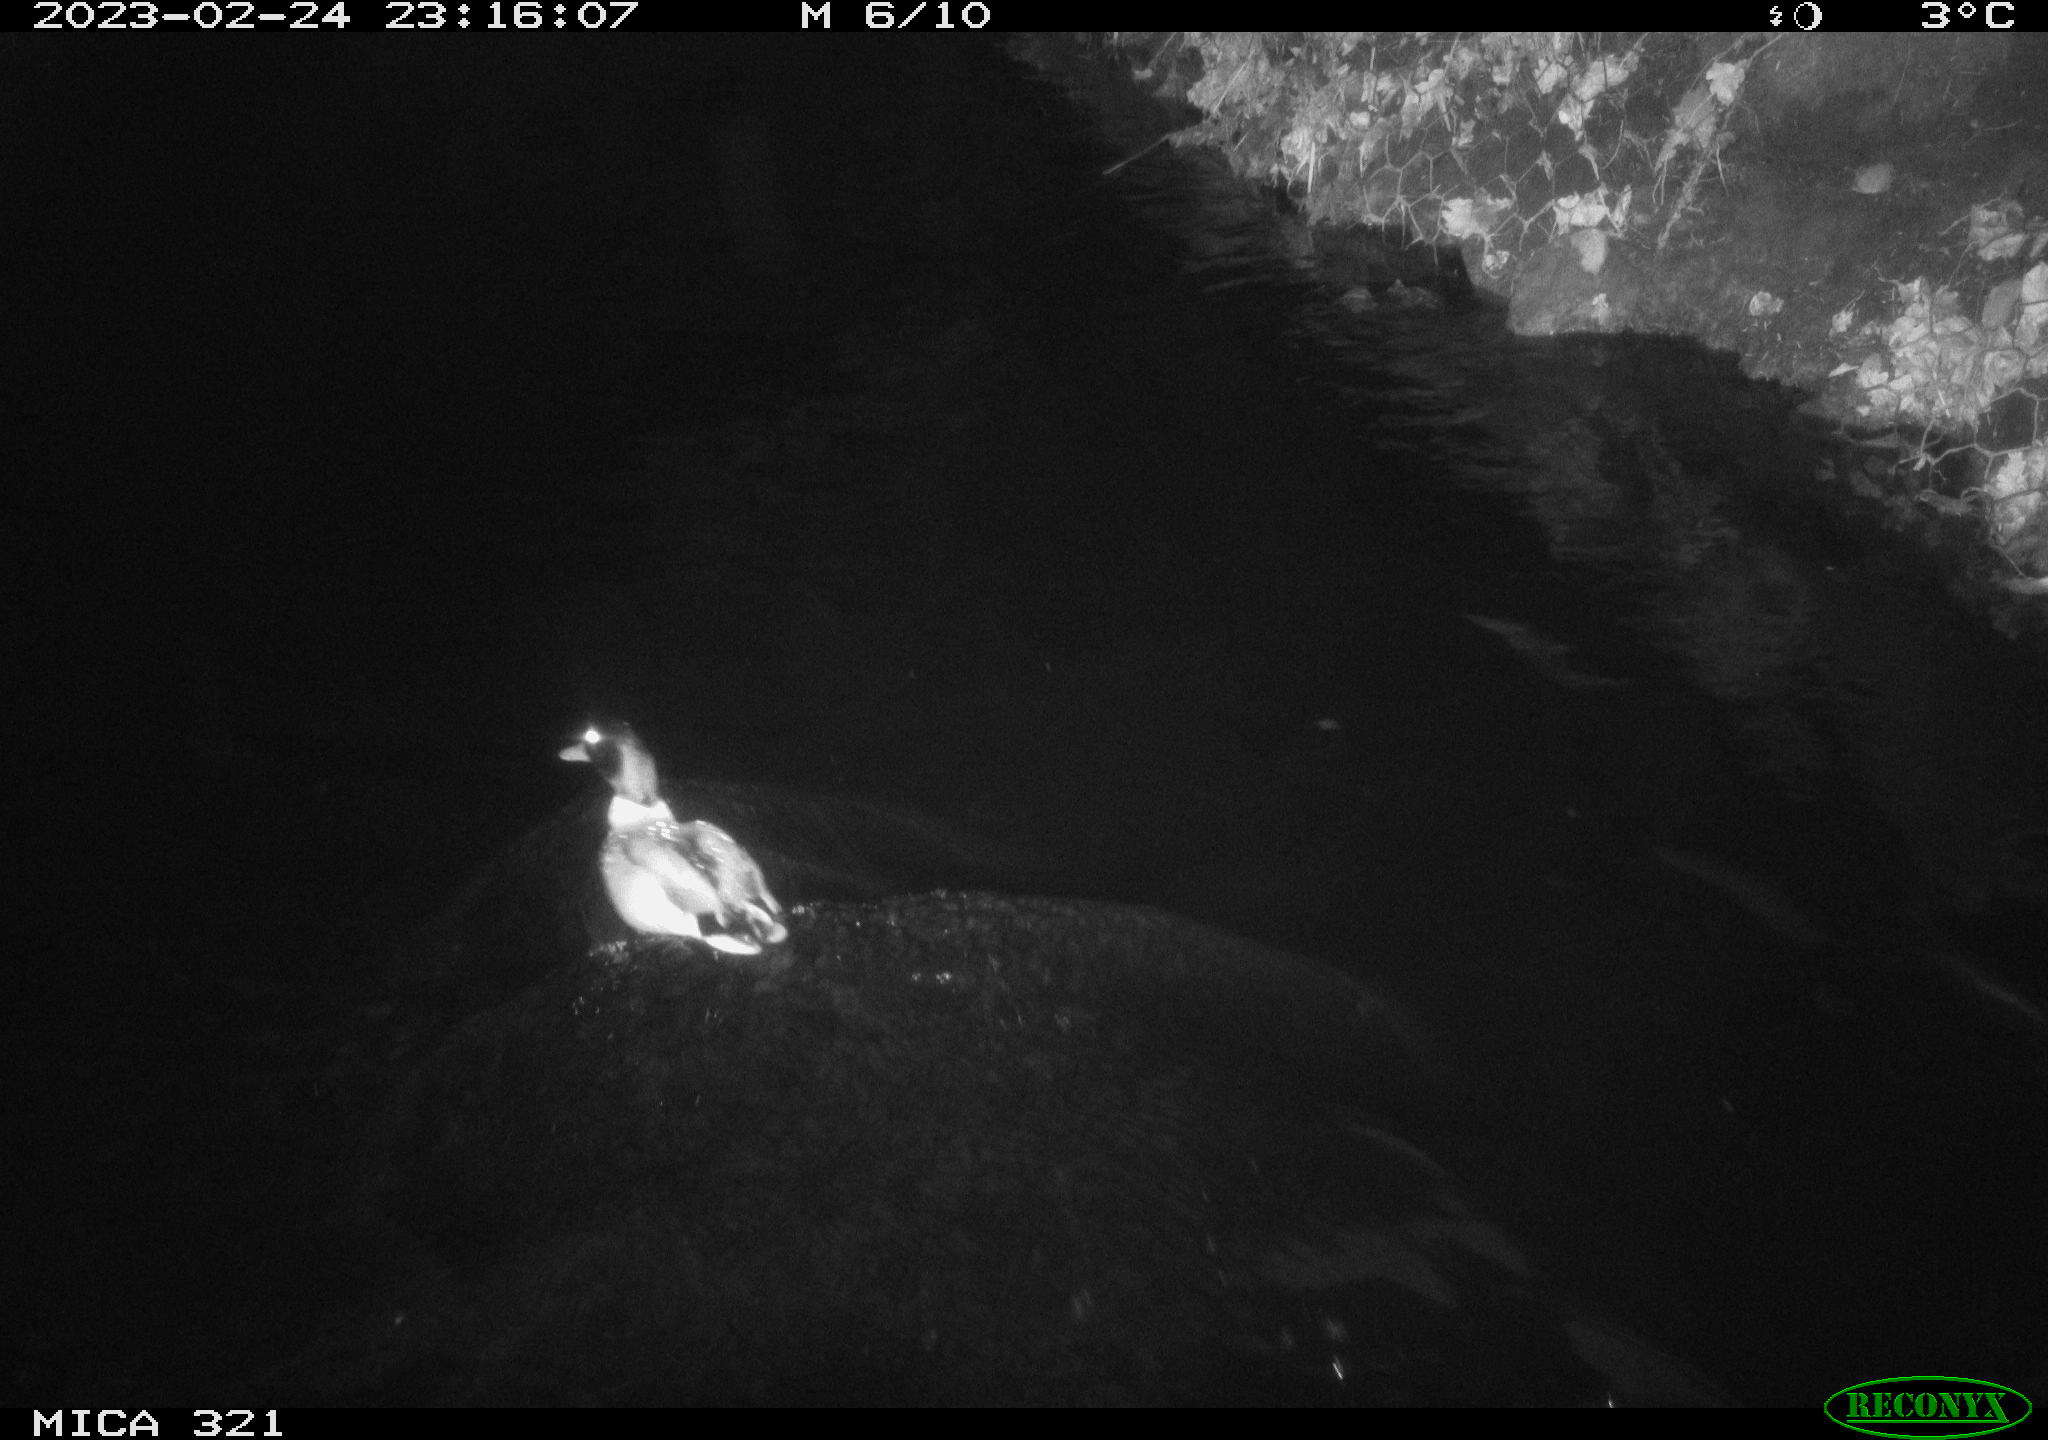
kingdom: Animalia
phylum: Chordata
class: Aves
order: Anseriformes
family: Anatidae
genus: Anas
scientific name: Anas
